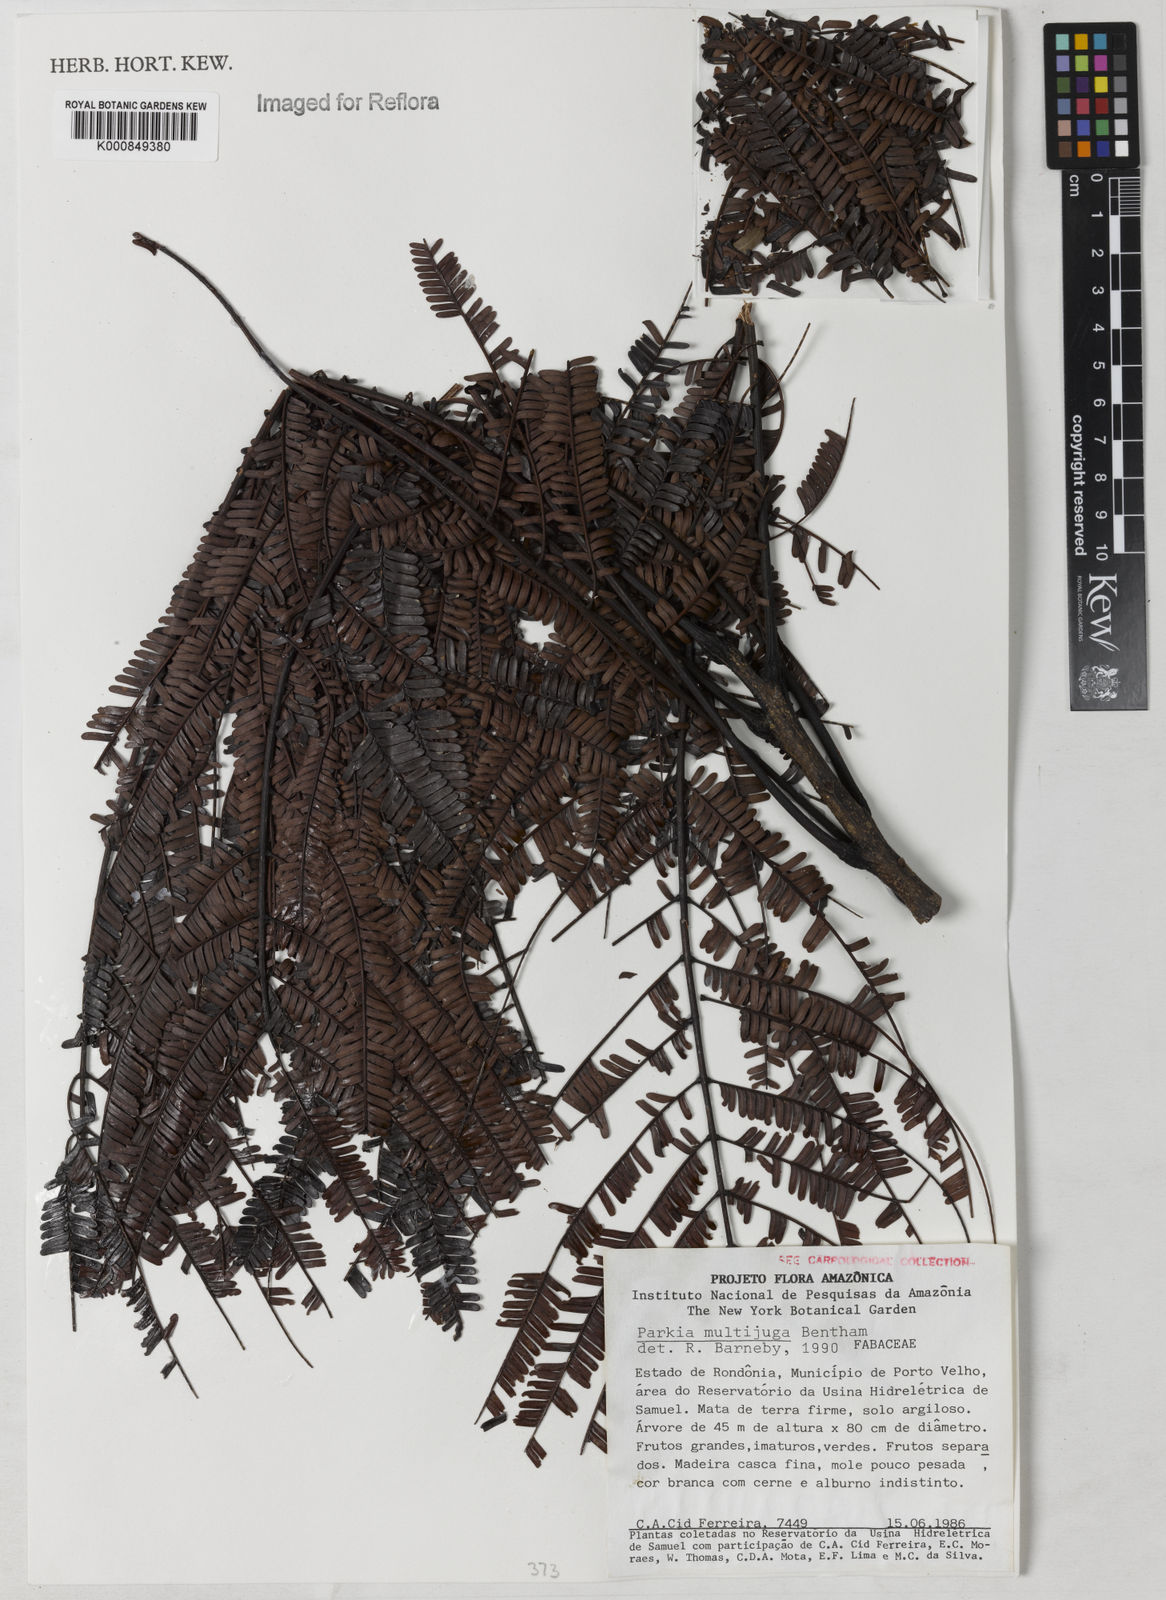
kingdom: Plantae
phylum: Tracheophyta
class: Magnoliopsida
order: Fabales
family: Fabaceae
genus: Parkia
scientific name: Parkia multijuga
